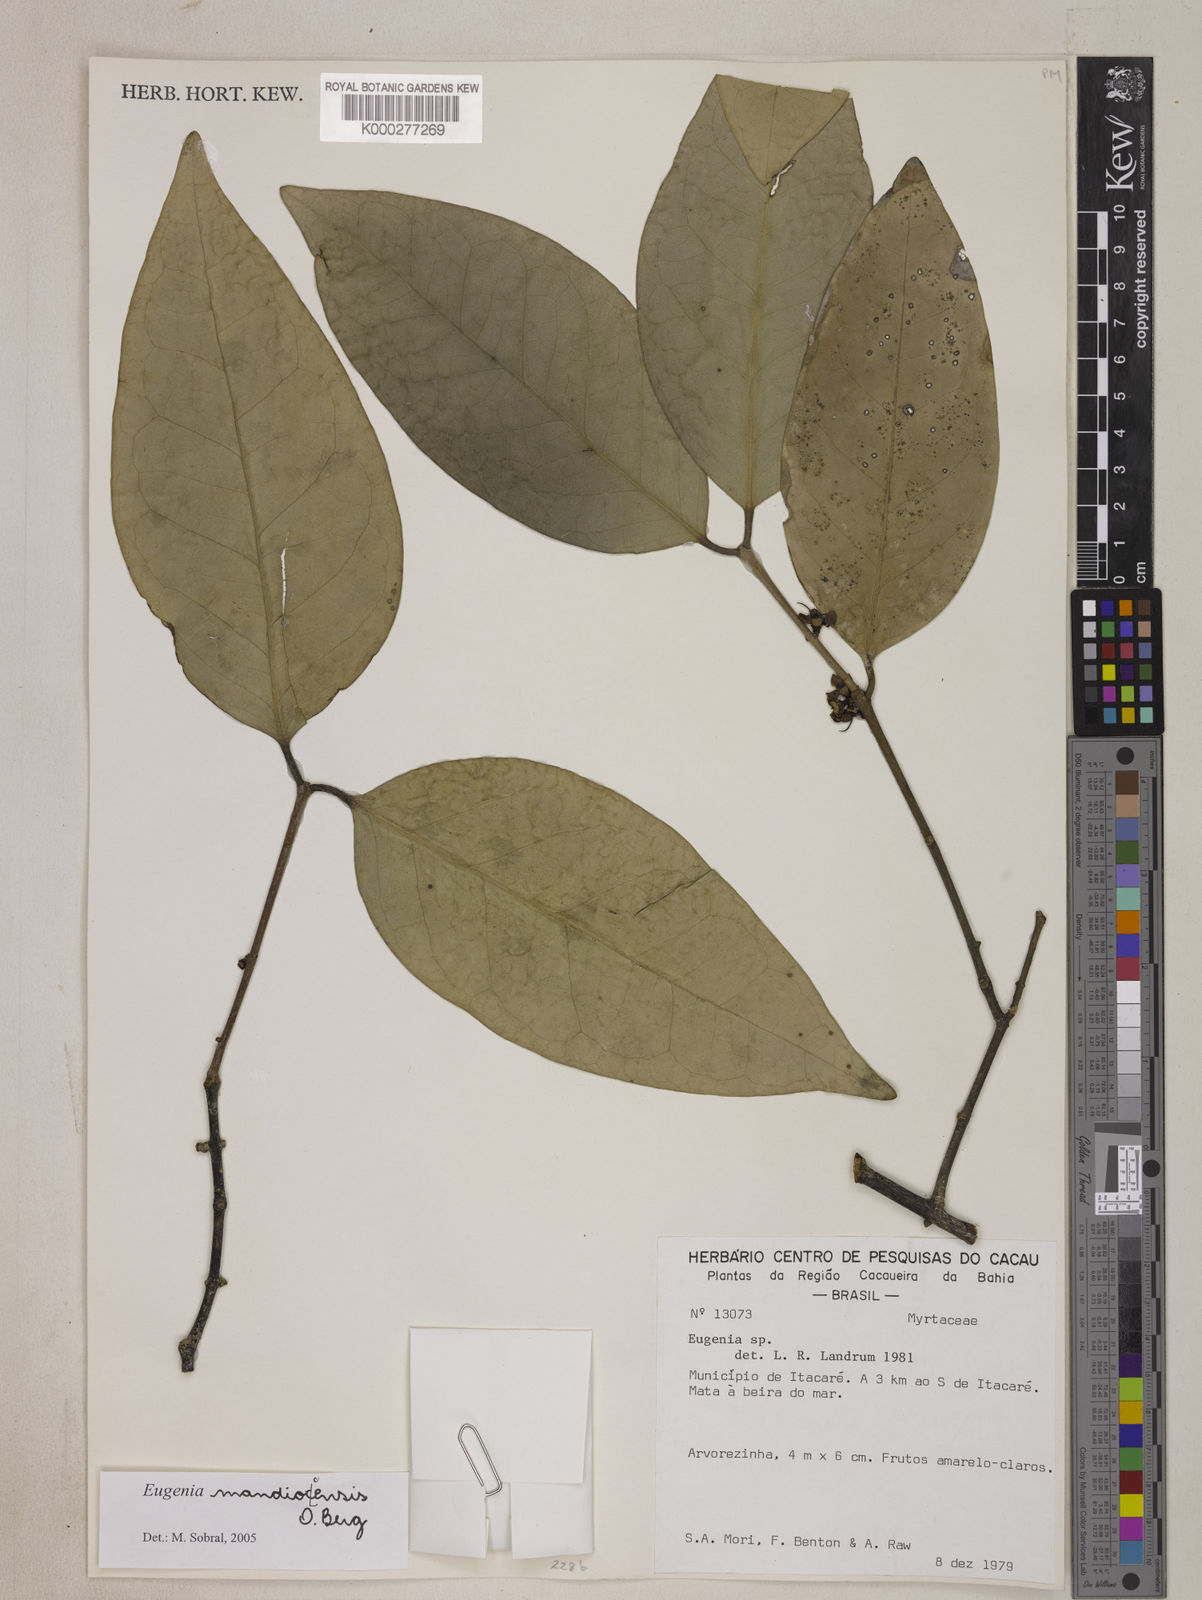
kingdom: Plantae
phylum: Tracheophyta
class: Magnoliopsida
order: Myrtales
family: Myrtaceae
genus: Eugenia
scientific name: Eugenia mandioccensis
